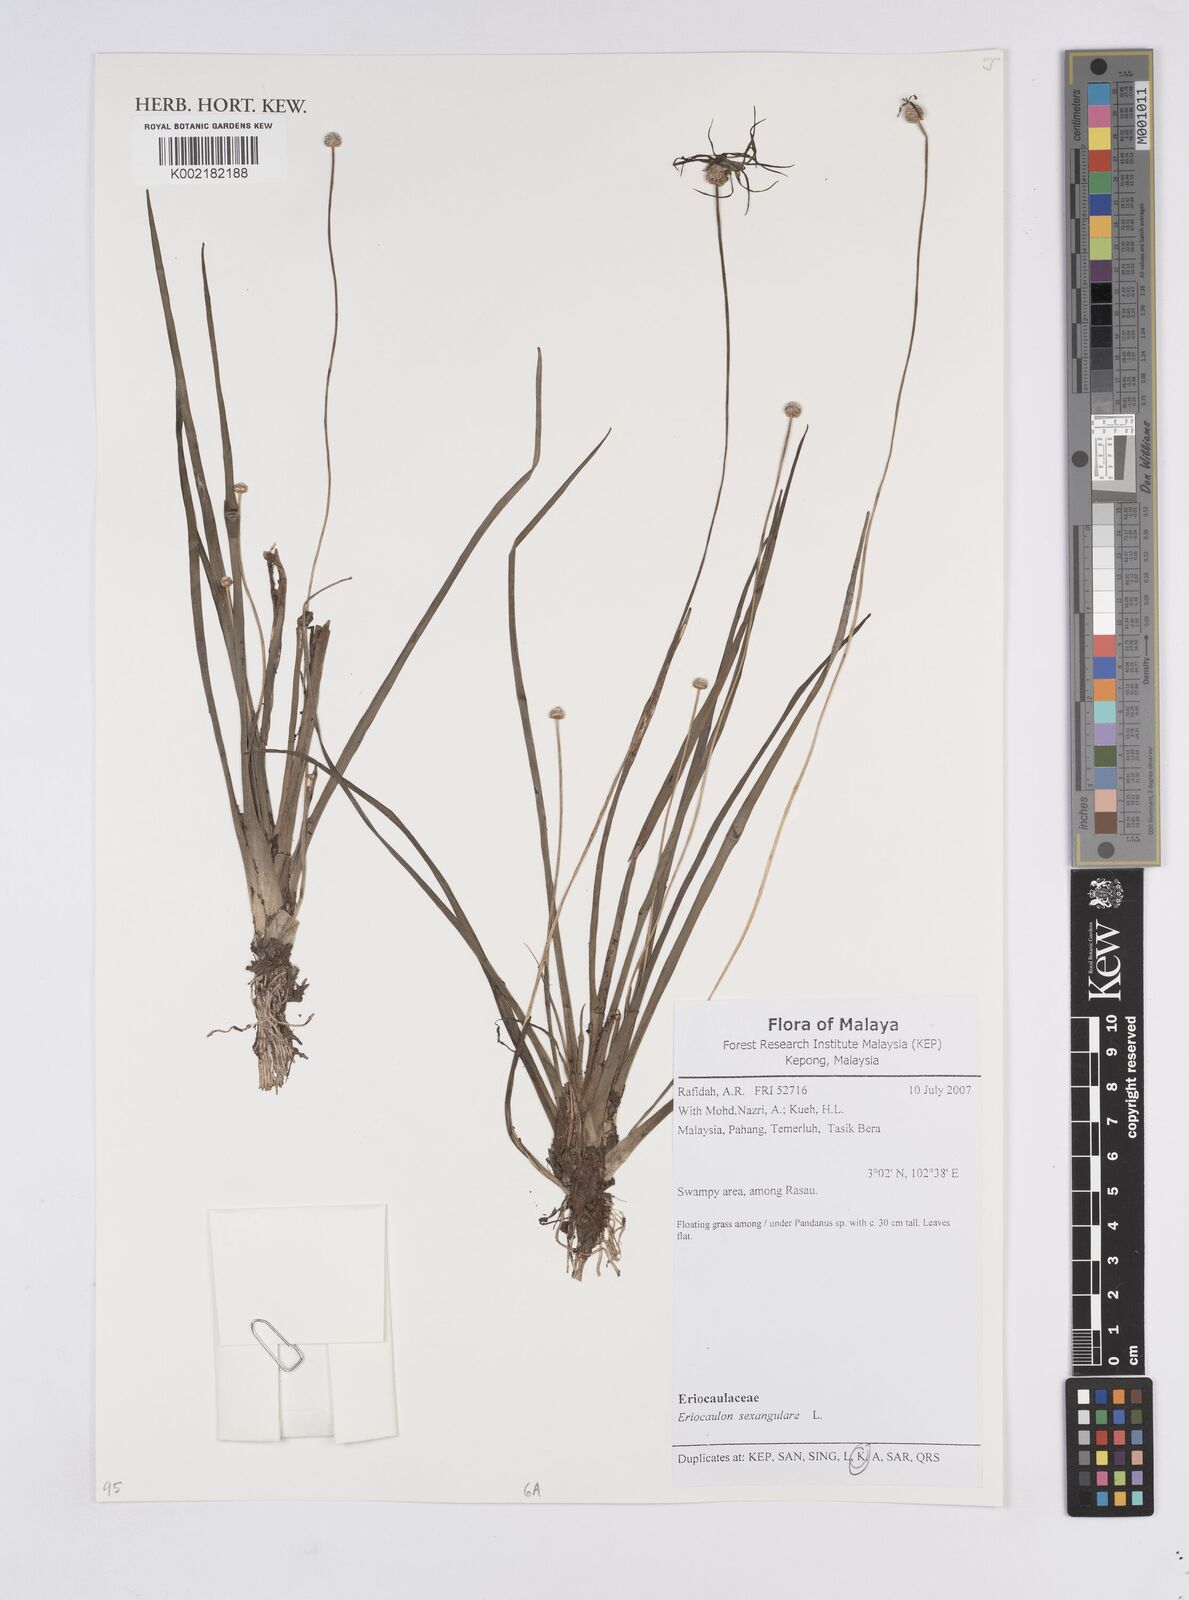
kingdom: Plantae
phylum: Tracheophyta
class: Liliopsida
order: Poales
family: Eriocaulaceae
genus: Eriocaulon
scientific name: Eriocaulon sexangulare
